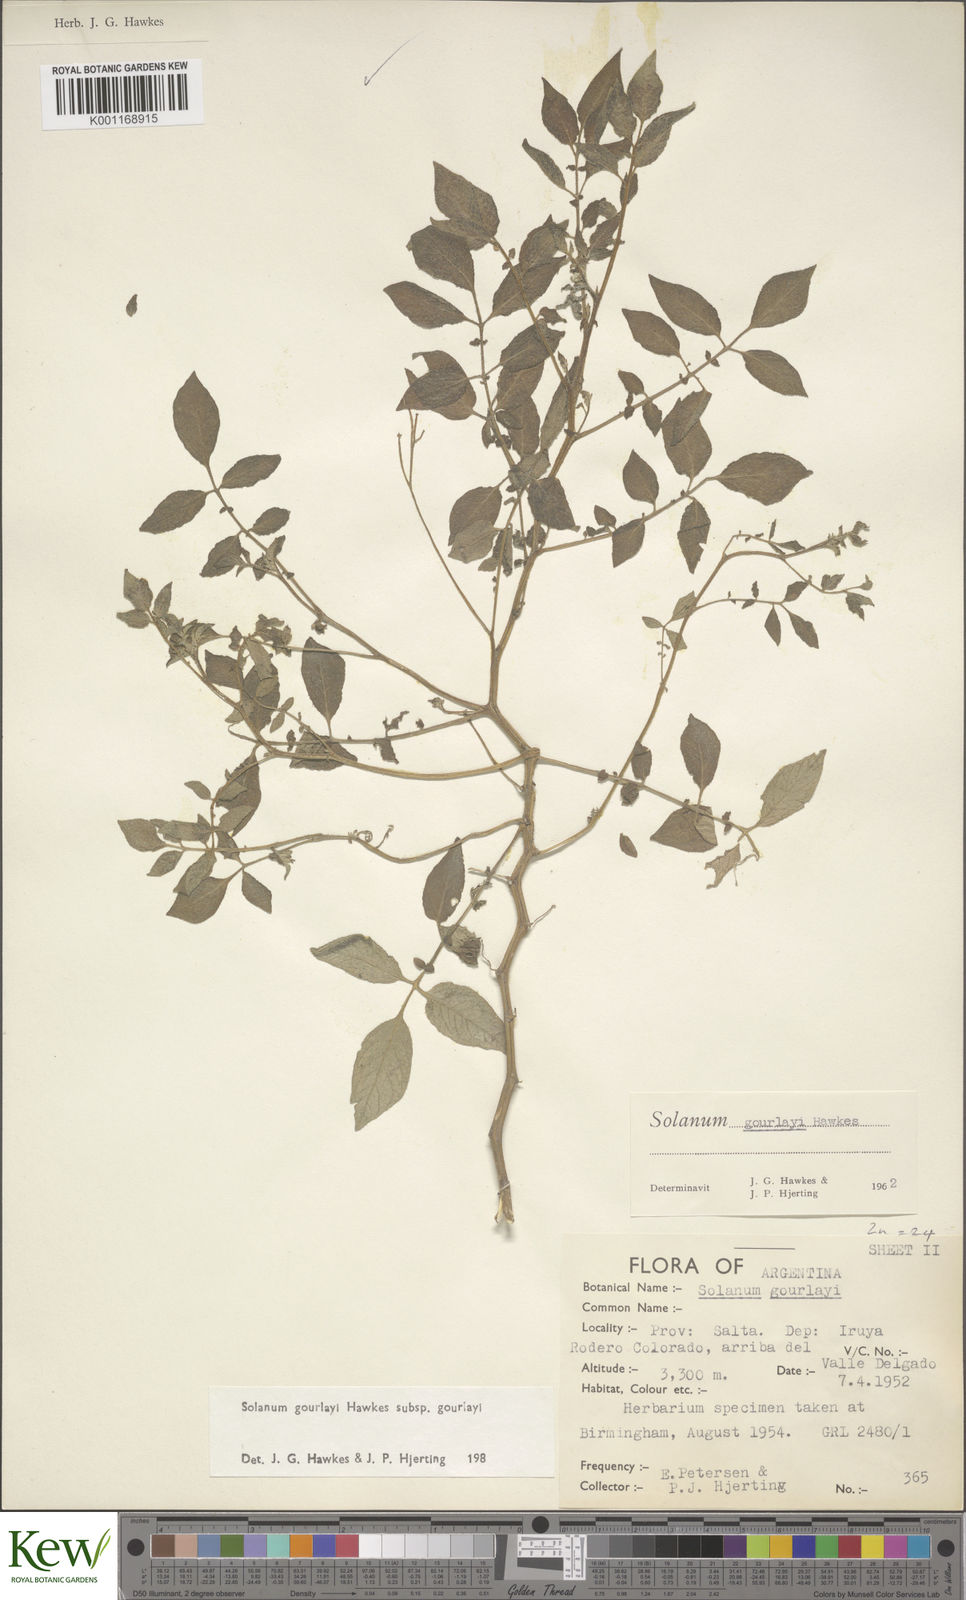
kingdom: Plantae
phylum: Tracheophyta
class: Magnoliopsida
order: Solanales
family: Solanaceae
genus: Solanum
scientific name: Solanum brevicaule
